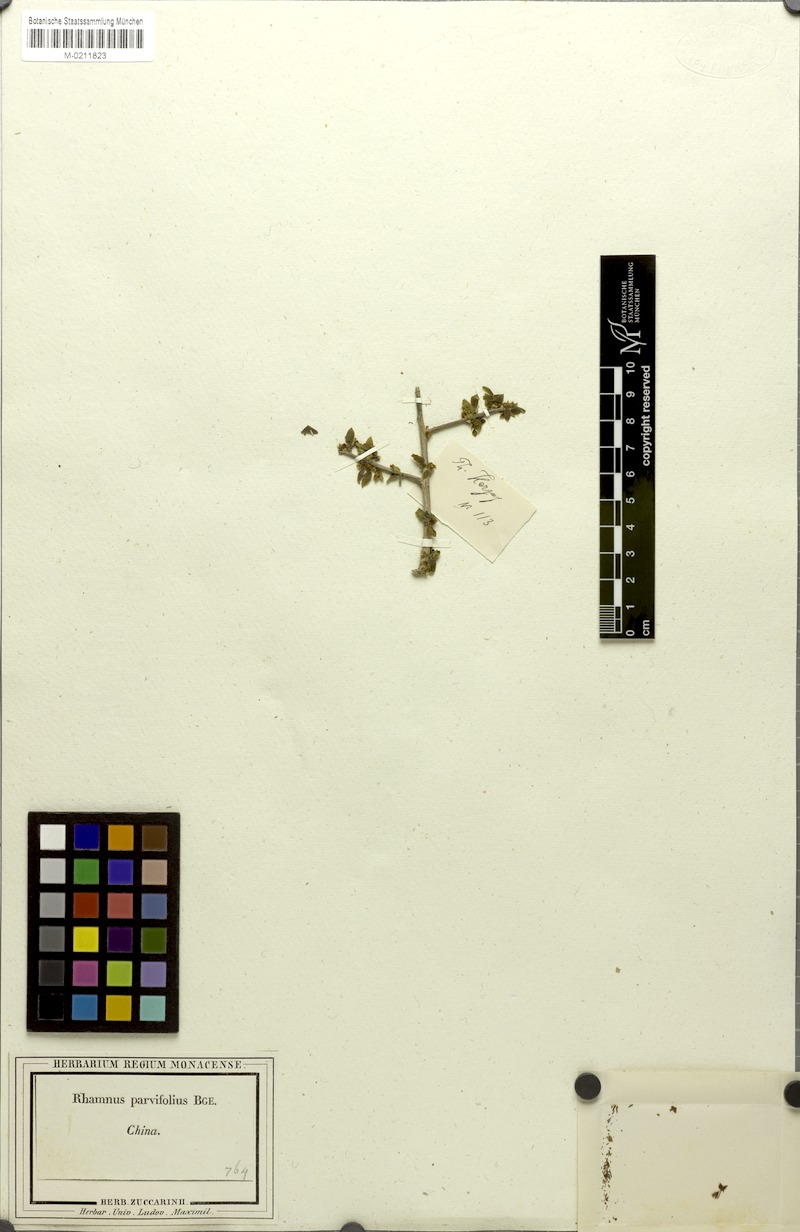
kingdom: Plantae
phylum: Tracheophyta
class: Magnoliopsida
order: Rosales
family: Rhamnaceae
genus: Rhamnus
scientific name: Rhamnus parvifolia
